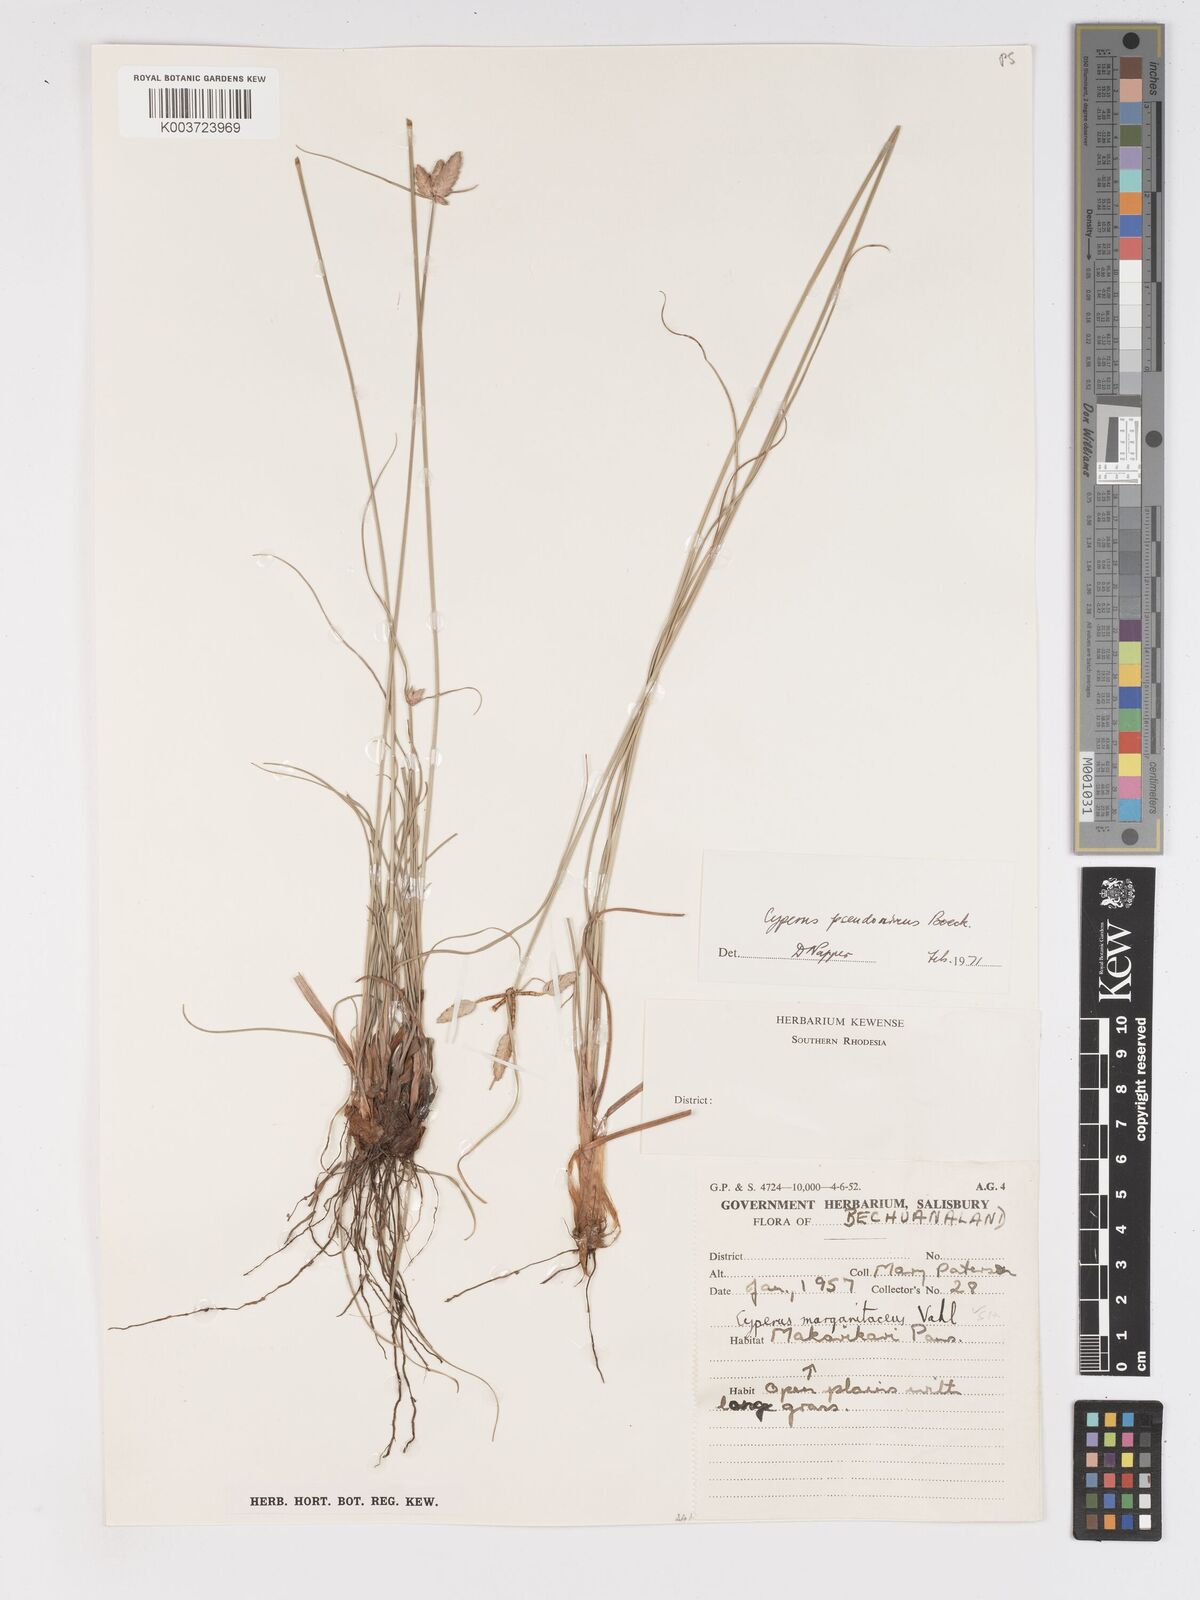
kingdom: Plantae
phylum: Tracheophyta
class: Liliopsida
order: Poales
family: Cyperaceae
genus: Cyperus
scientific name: Cyperus margaritaceus
